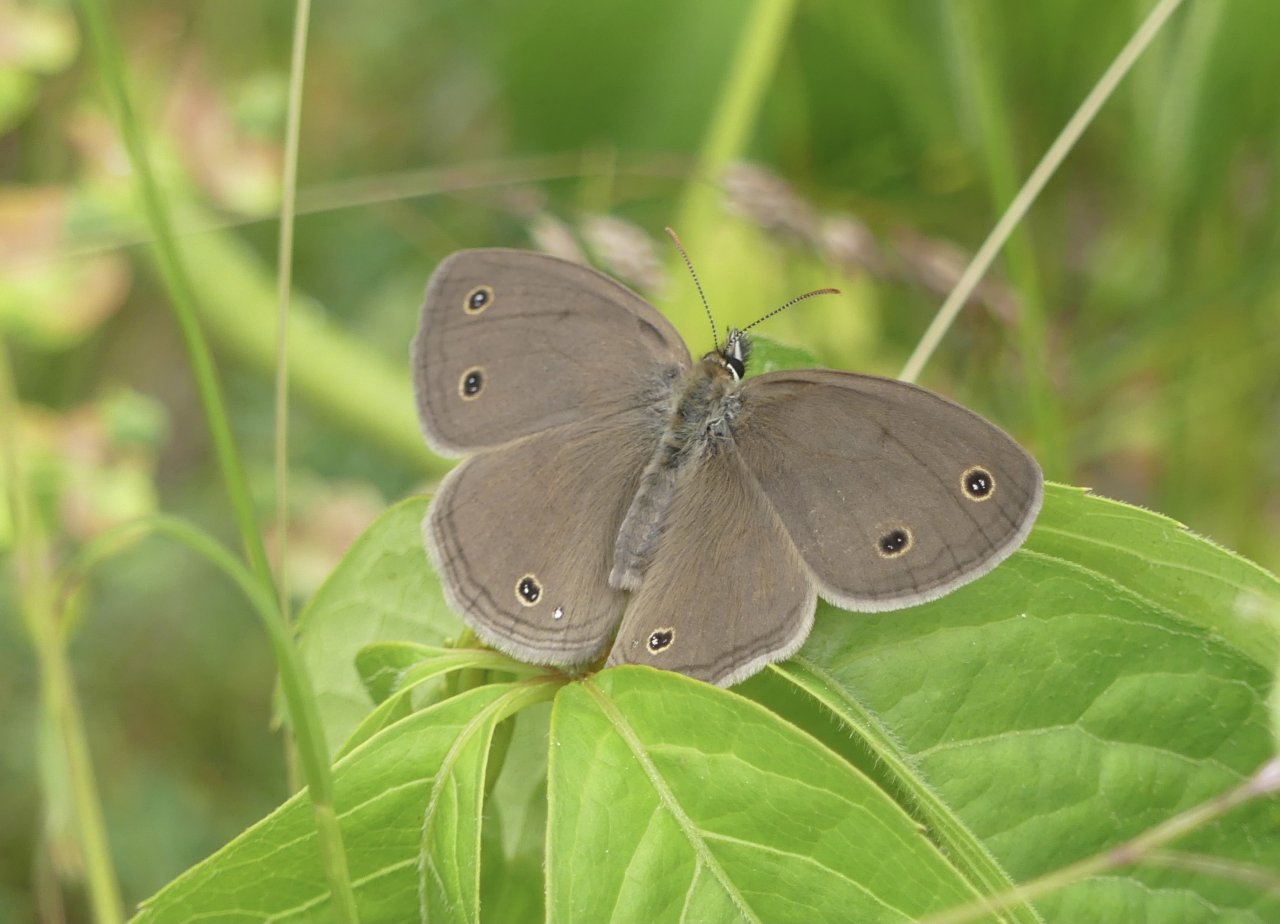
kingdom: Animalia
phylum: Arthropoda
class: Insecta
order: Lepidoptera
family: Nymphalidae
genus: Euptychia
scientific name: Euptychia cymela
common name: Little Wood Satyr
